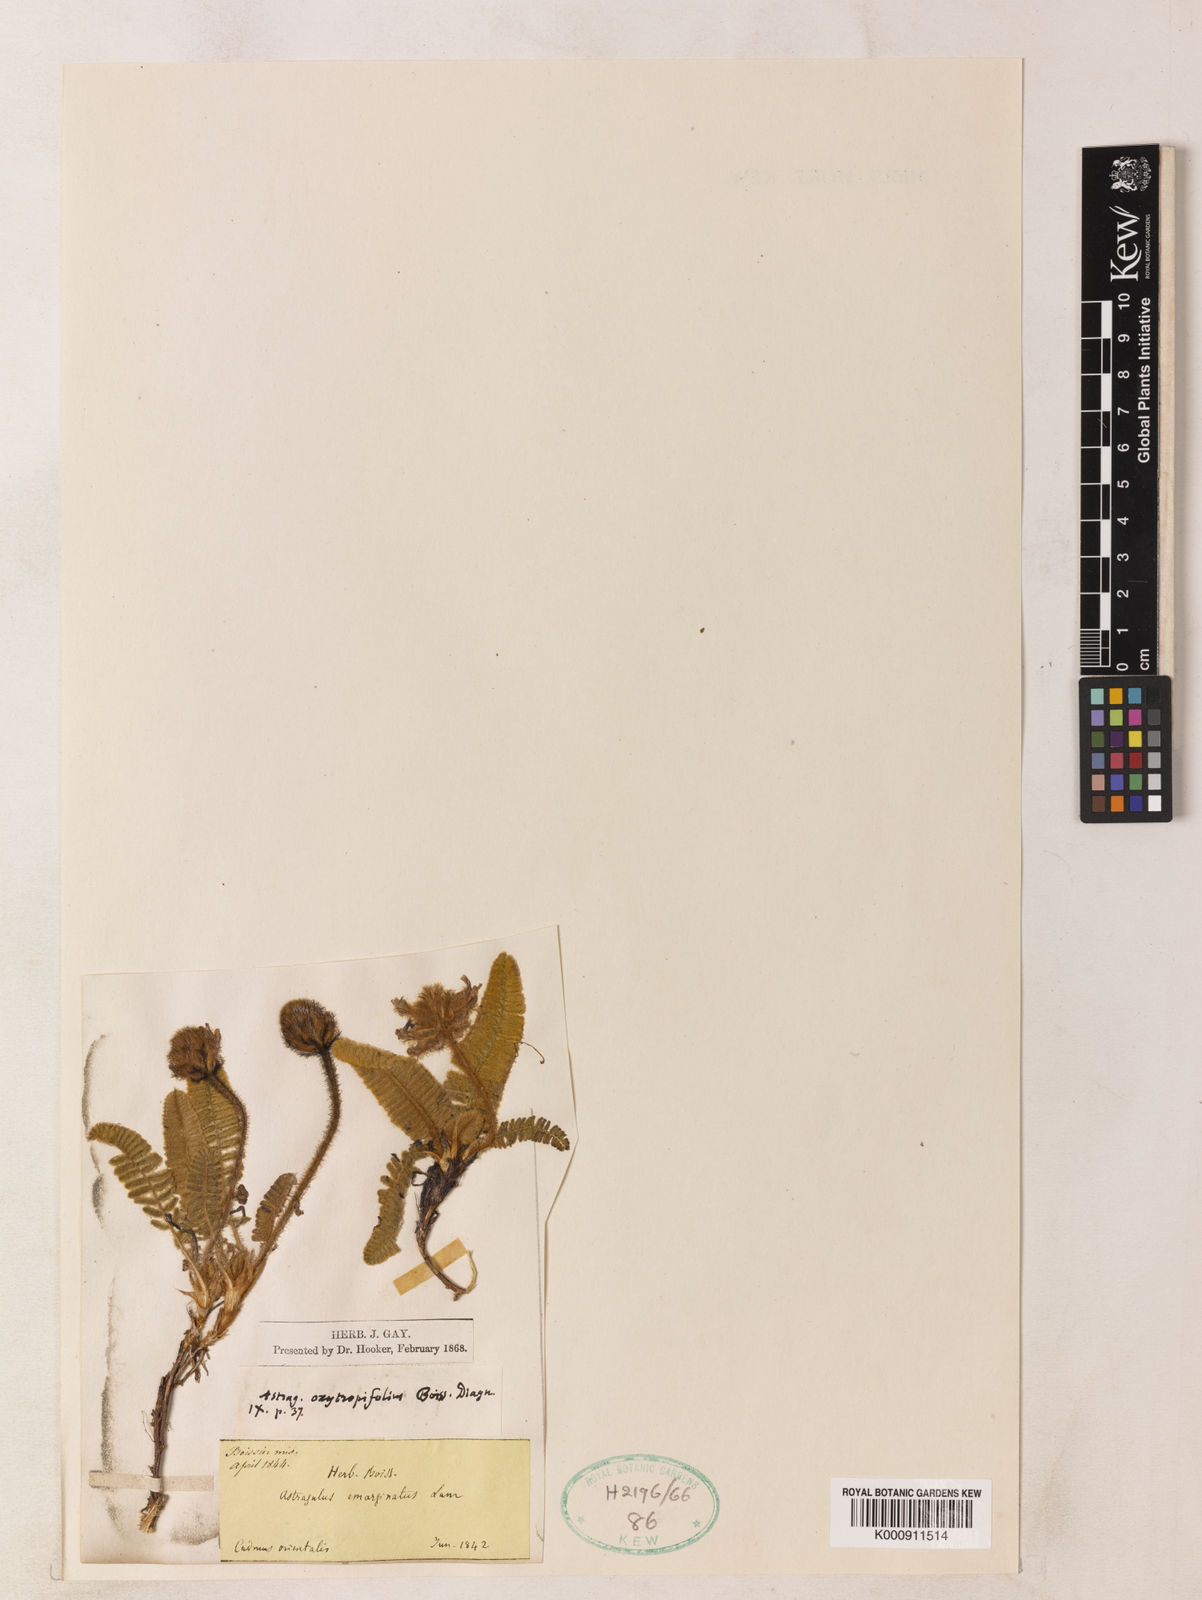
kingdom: Plantae
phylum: Tracheophyta
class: Magnoliopsida
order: Fabales
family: Fabaceae
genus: Astragalus
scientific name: Astragalus oxytropifolius
